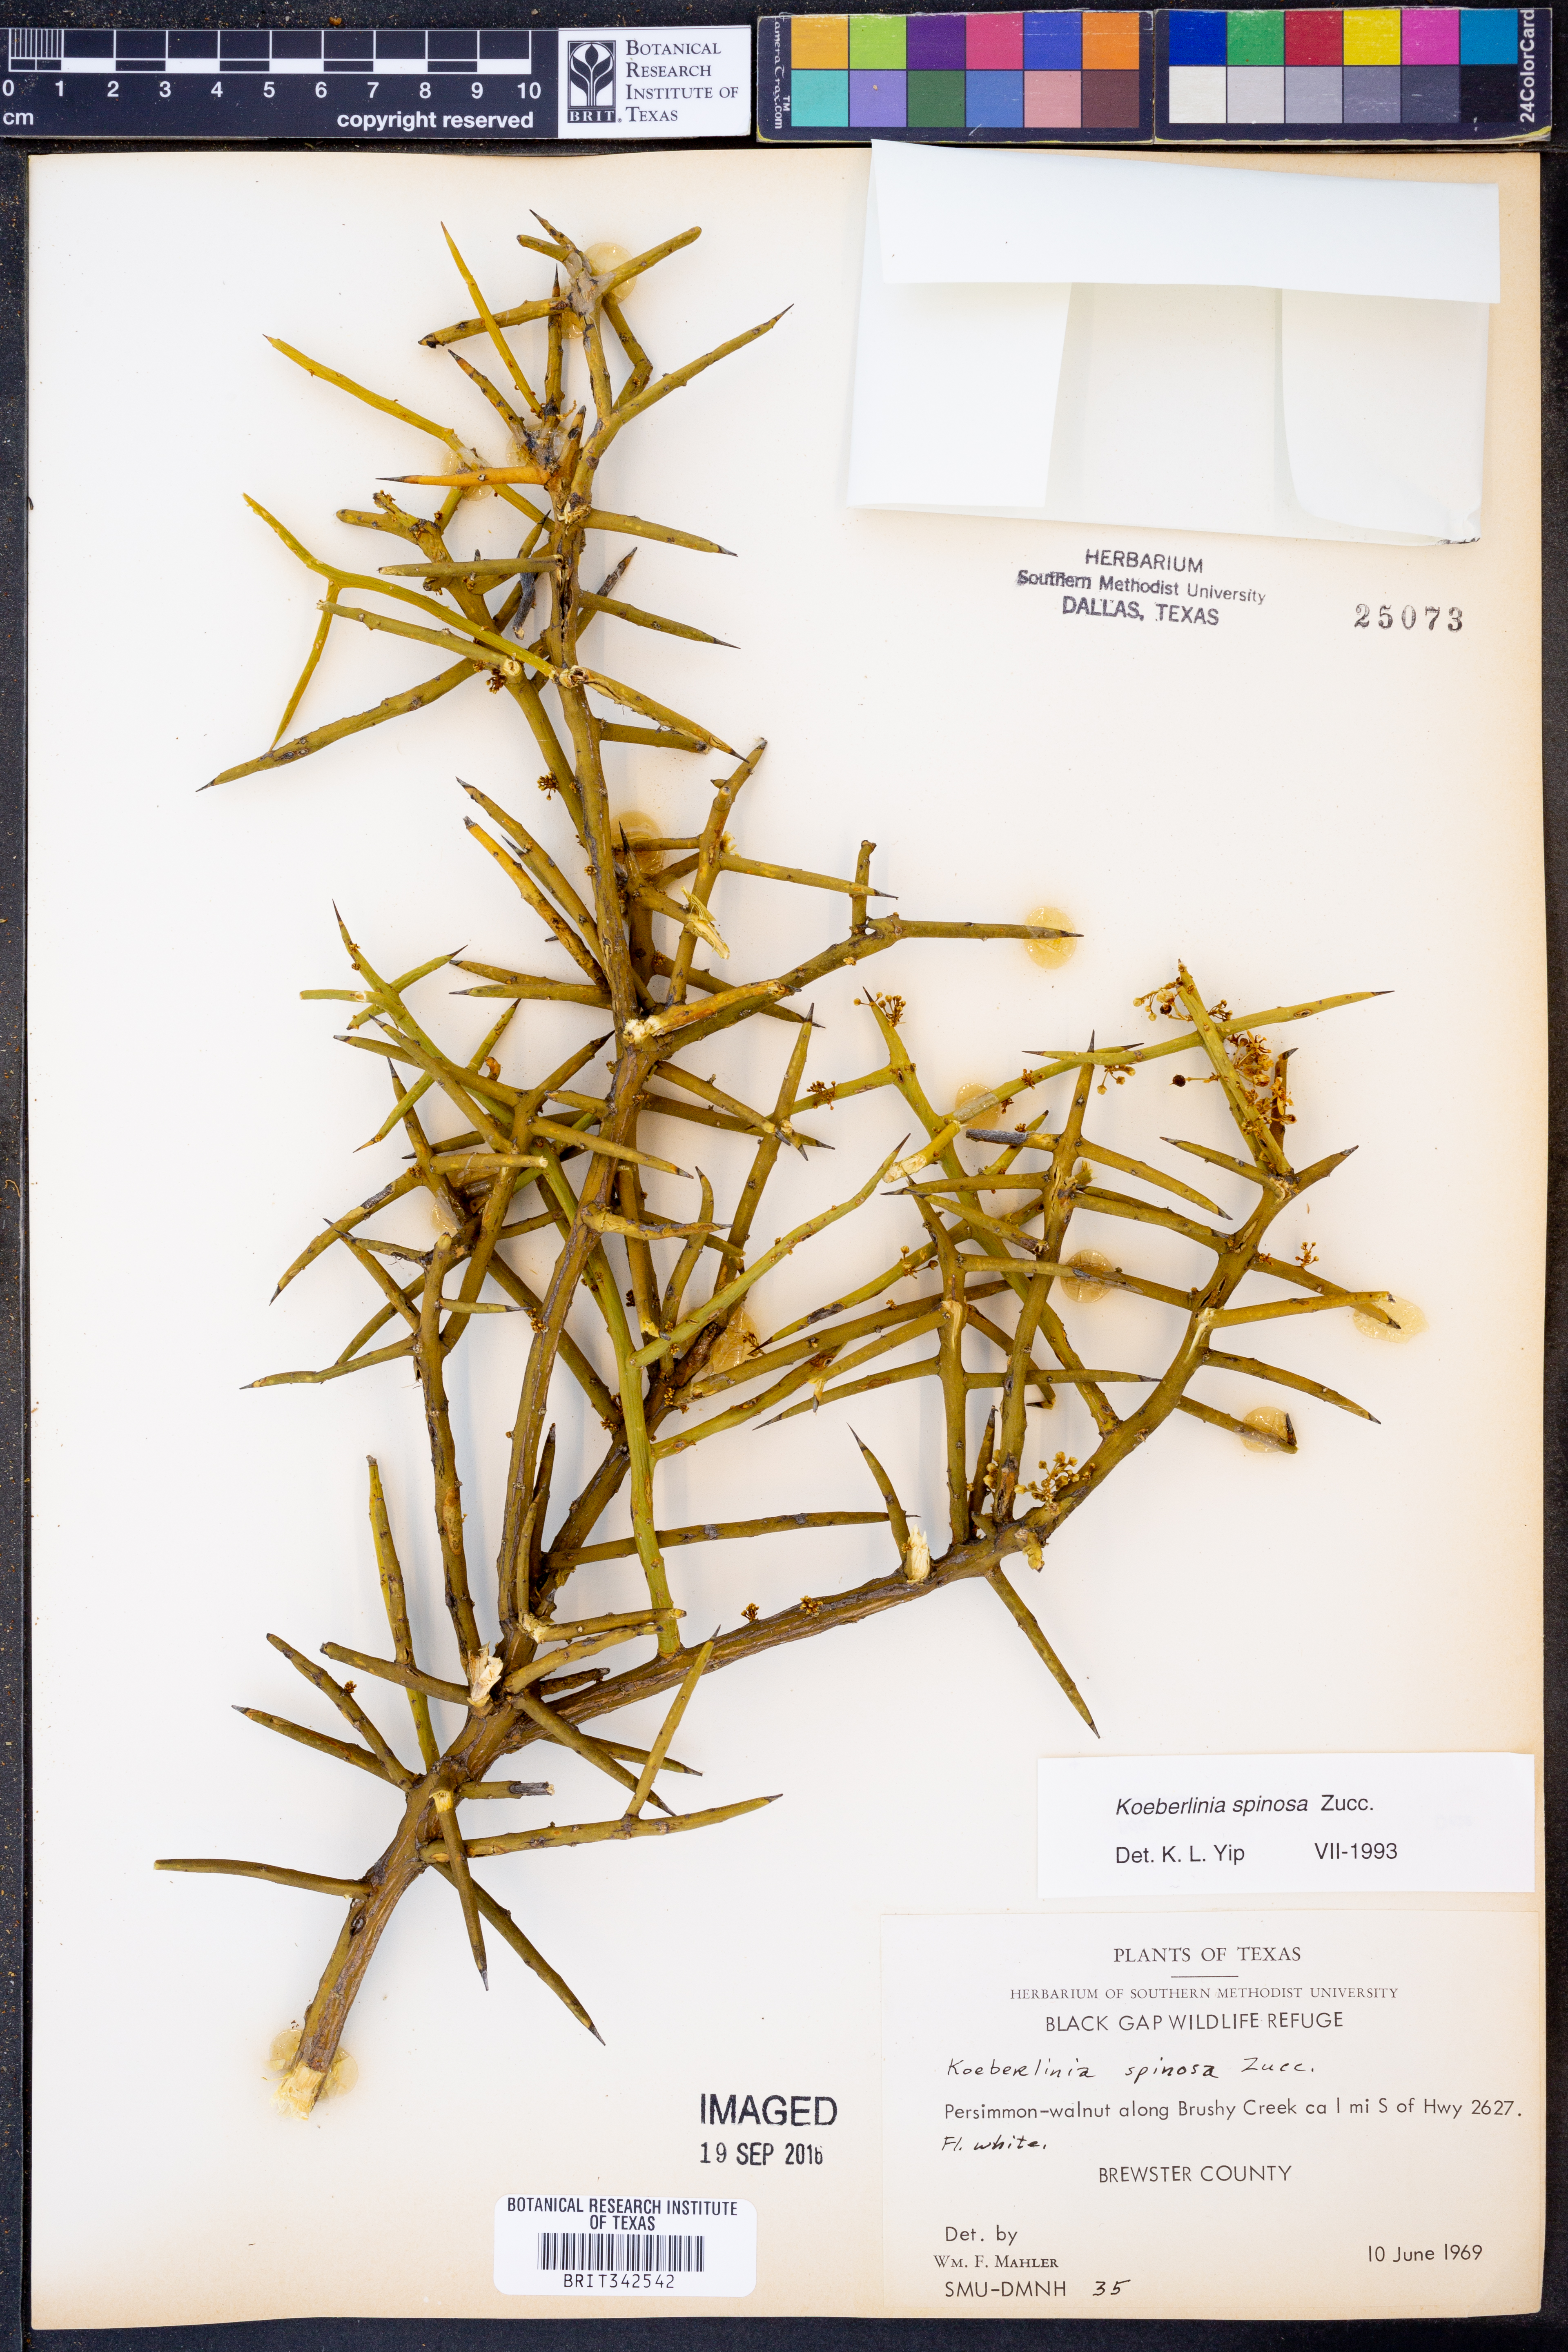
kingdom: Plantae
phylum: Tracheophyta
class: Magnoliopsida
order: Brassicales
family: Koeberliniaceae
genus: Koeberlinia
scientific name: Koeberlinia spinosa
